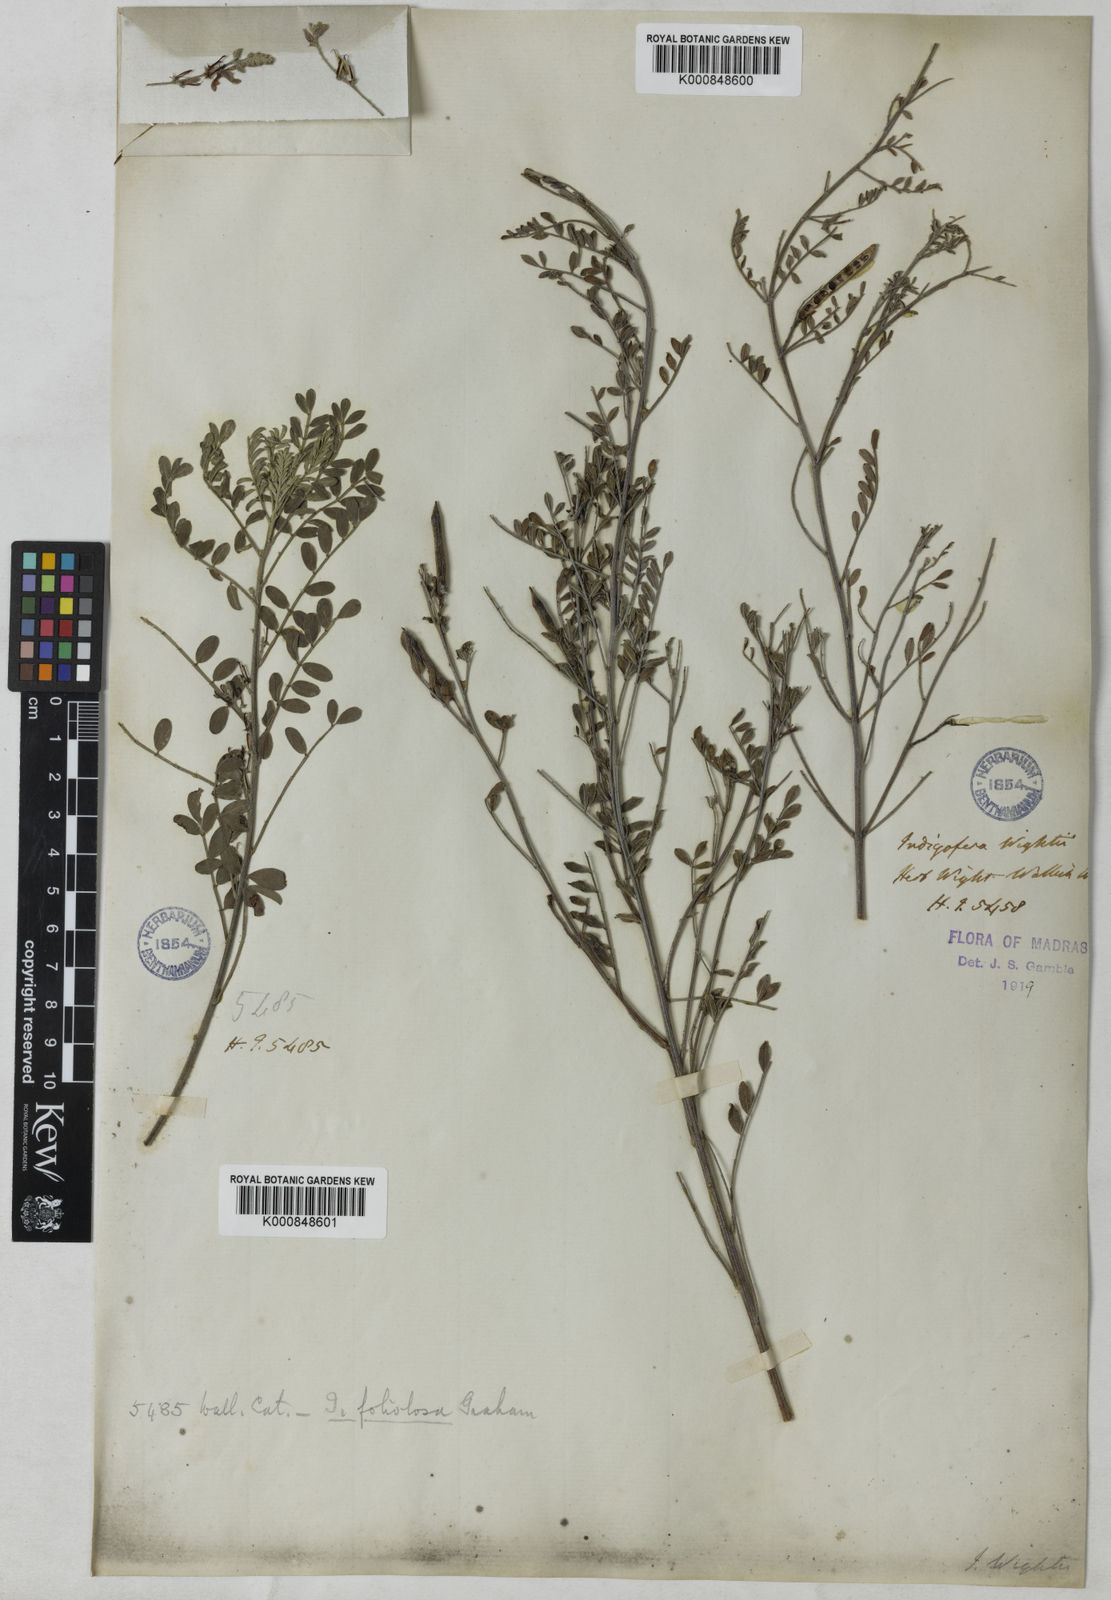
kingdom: Plantae
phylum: Tracheophyta
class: Magnoliopsida
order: Fabales
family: Fabaceae
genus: Indigofera
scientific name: Indigofera
